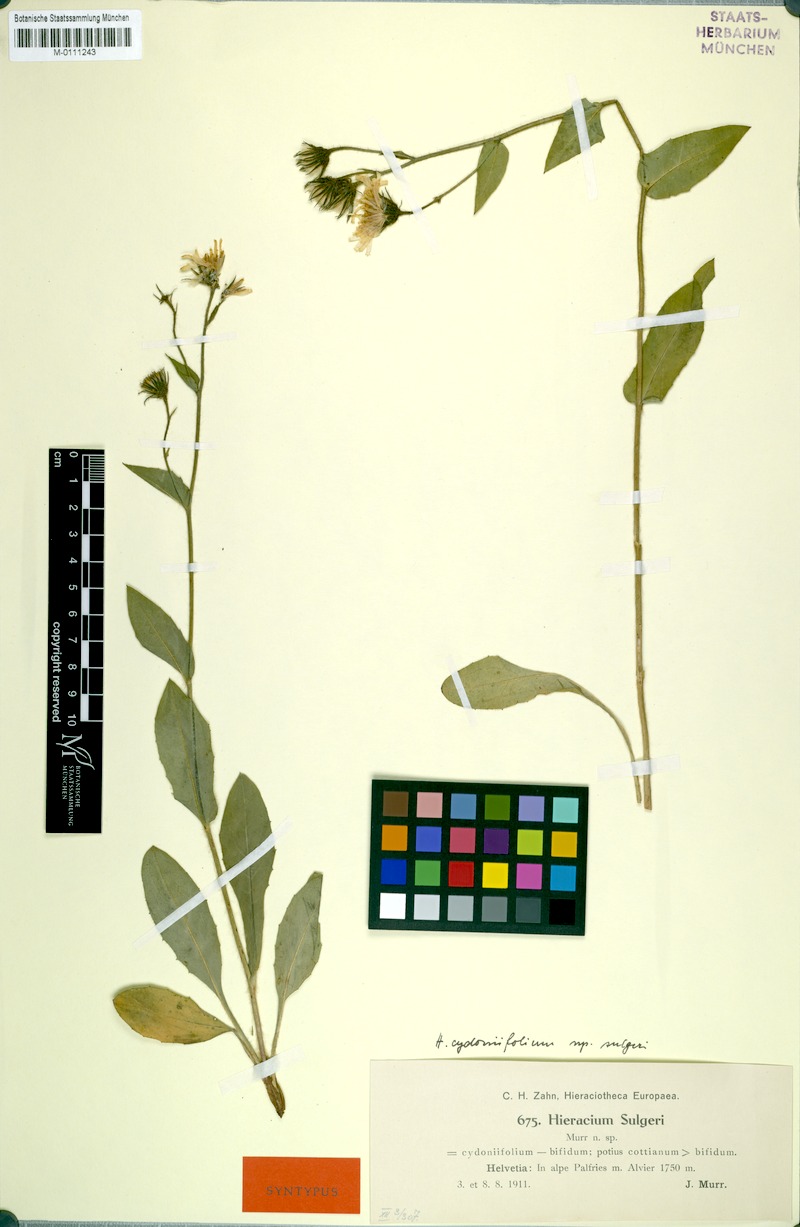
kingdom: Plantae
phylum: Tracheophyta
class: Magnoliopsida
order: Asterales
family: Asteraceae
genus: Hieracium
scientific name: Hieracium cydoniifolium
